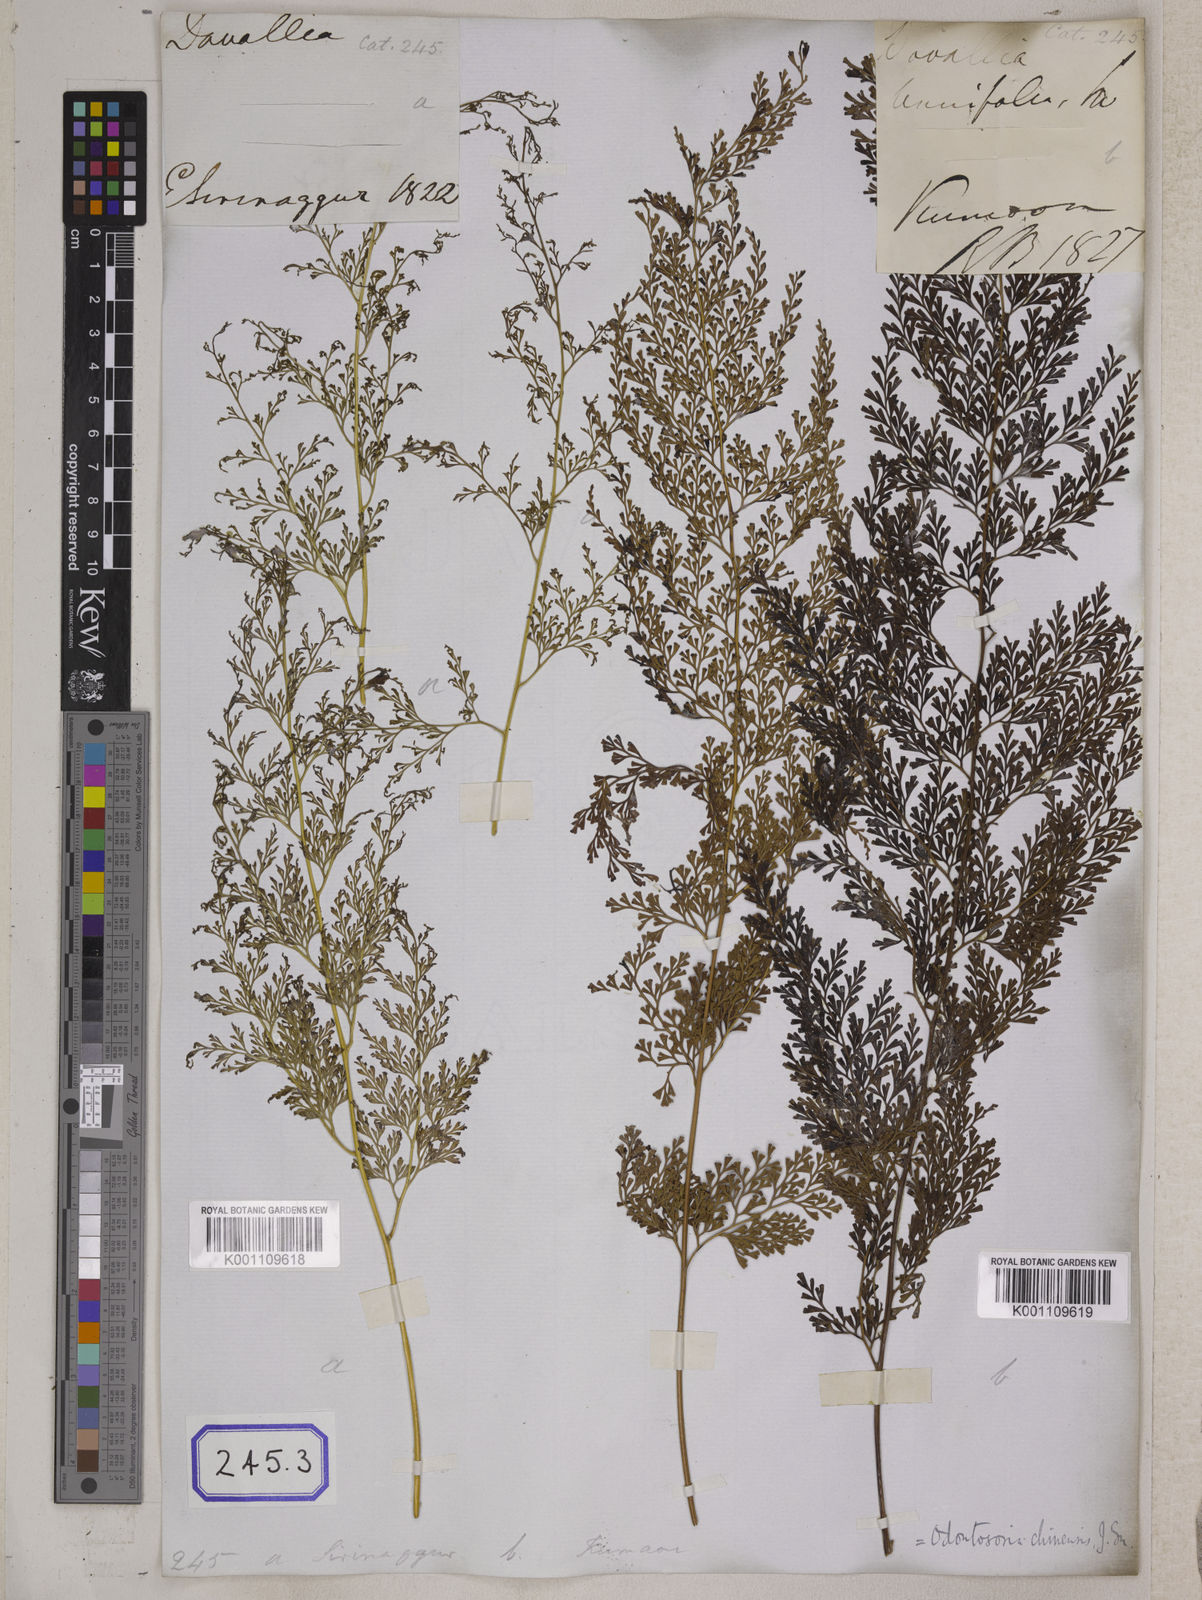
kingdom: Plantae
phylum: Tracheophyta
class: Polypodiopsida
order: Polypodiales
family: Lindsaeaceae
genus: Odontosoria
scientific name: Odontosoria chinensis
